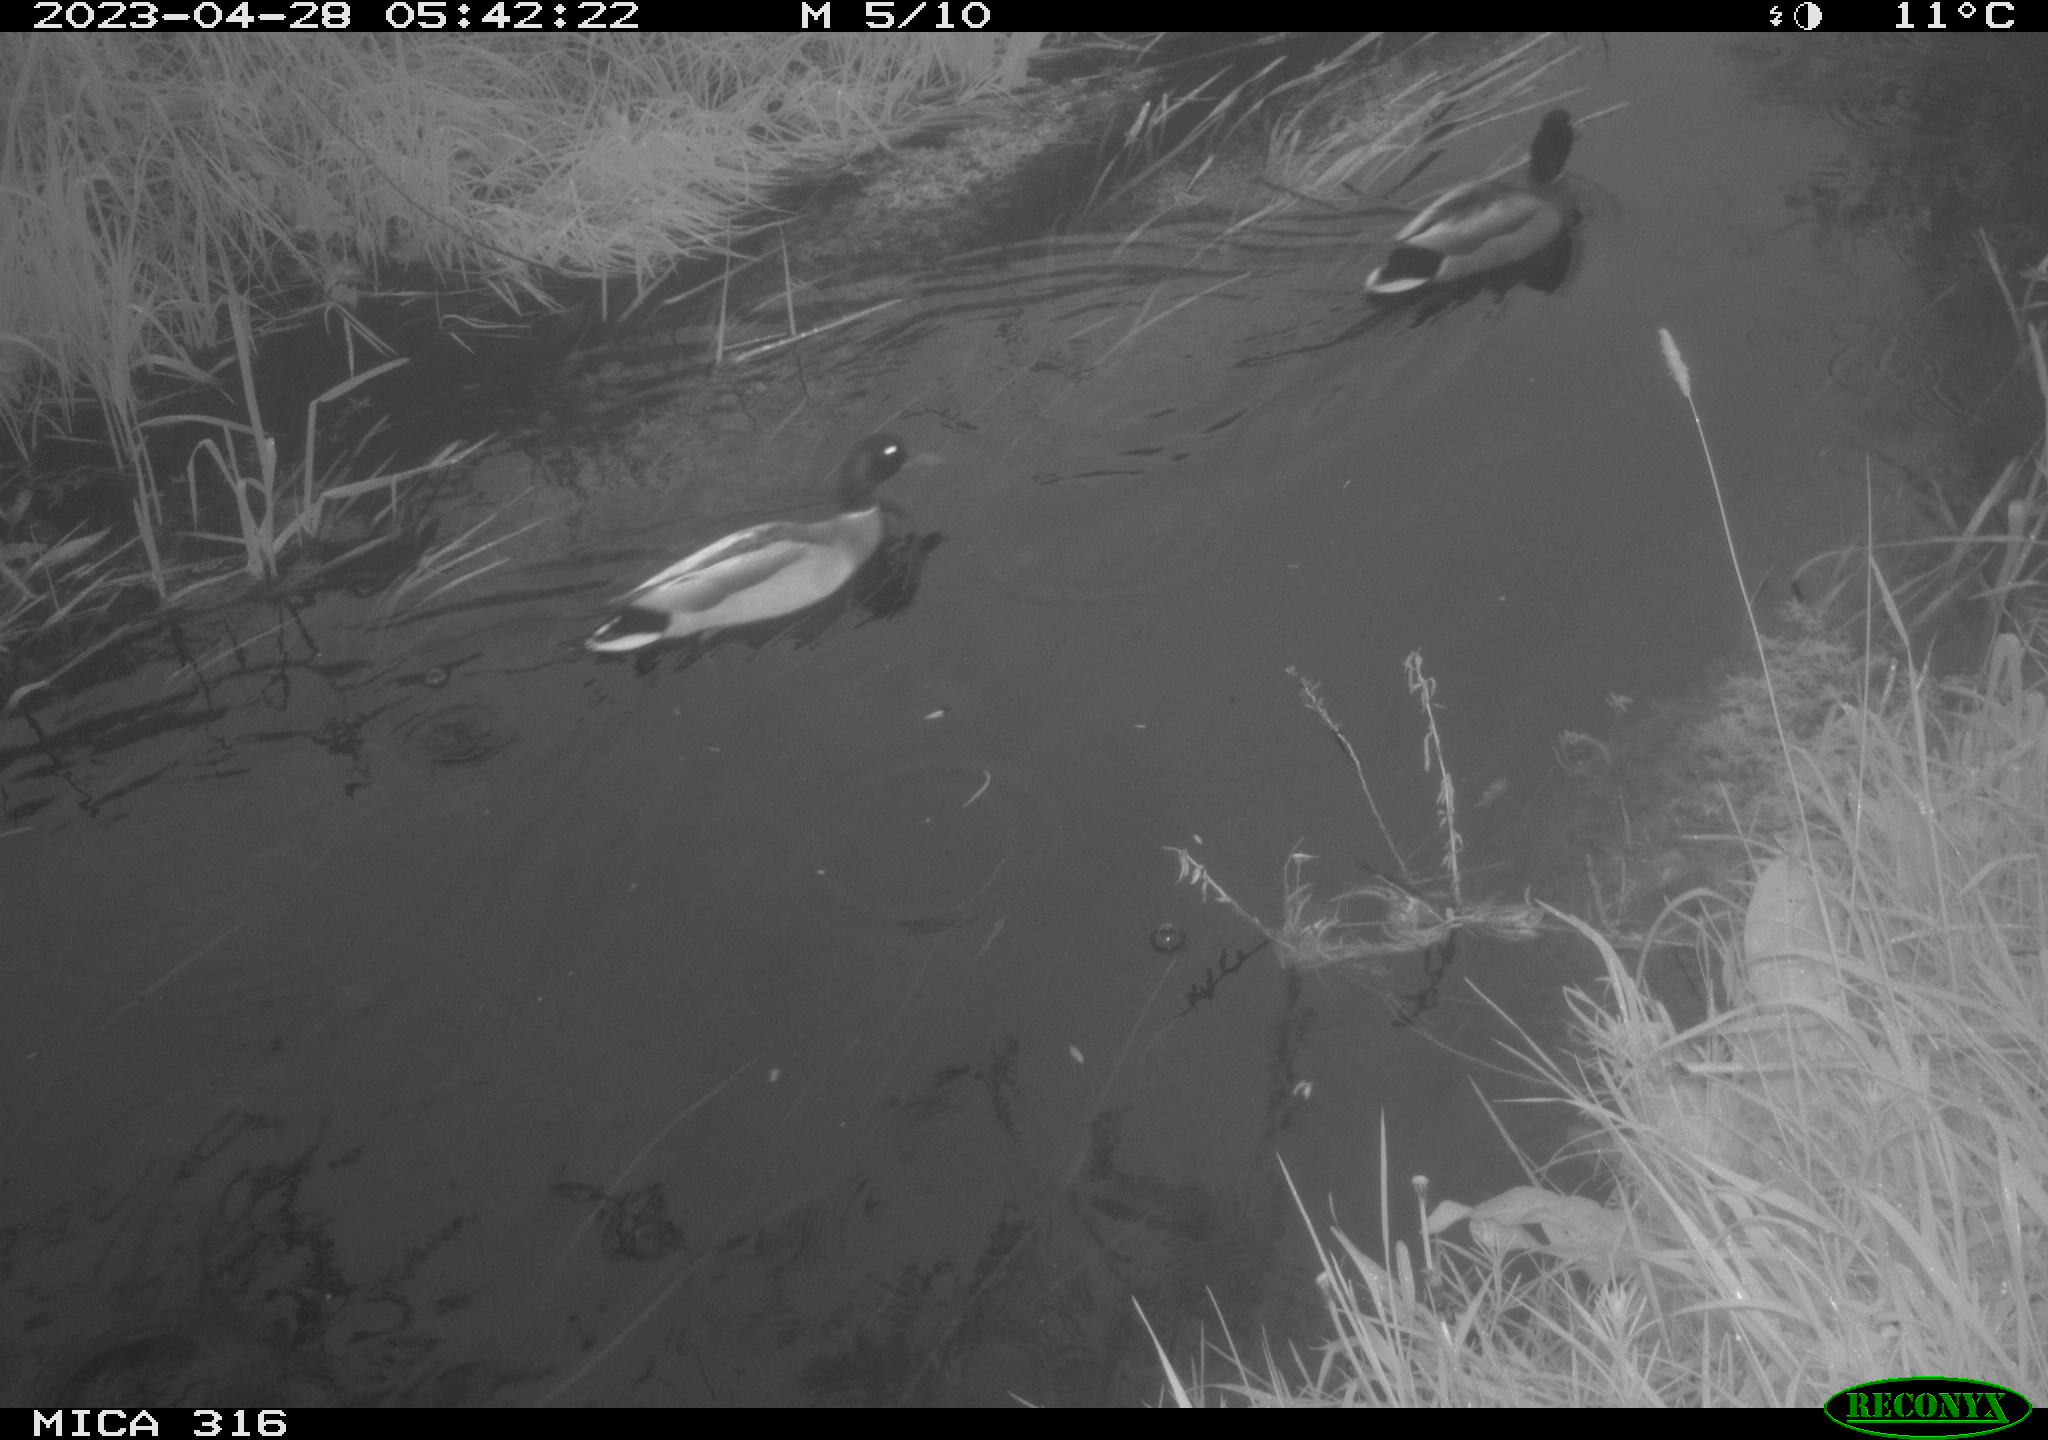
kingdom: Animalia
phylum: Chordata
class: Aves
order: Anseriformes
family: Anatidae
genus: Anas
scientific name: Anas
